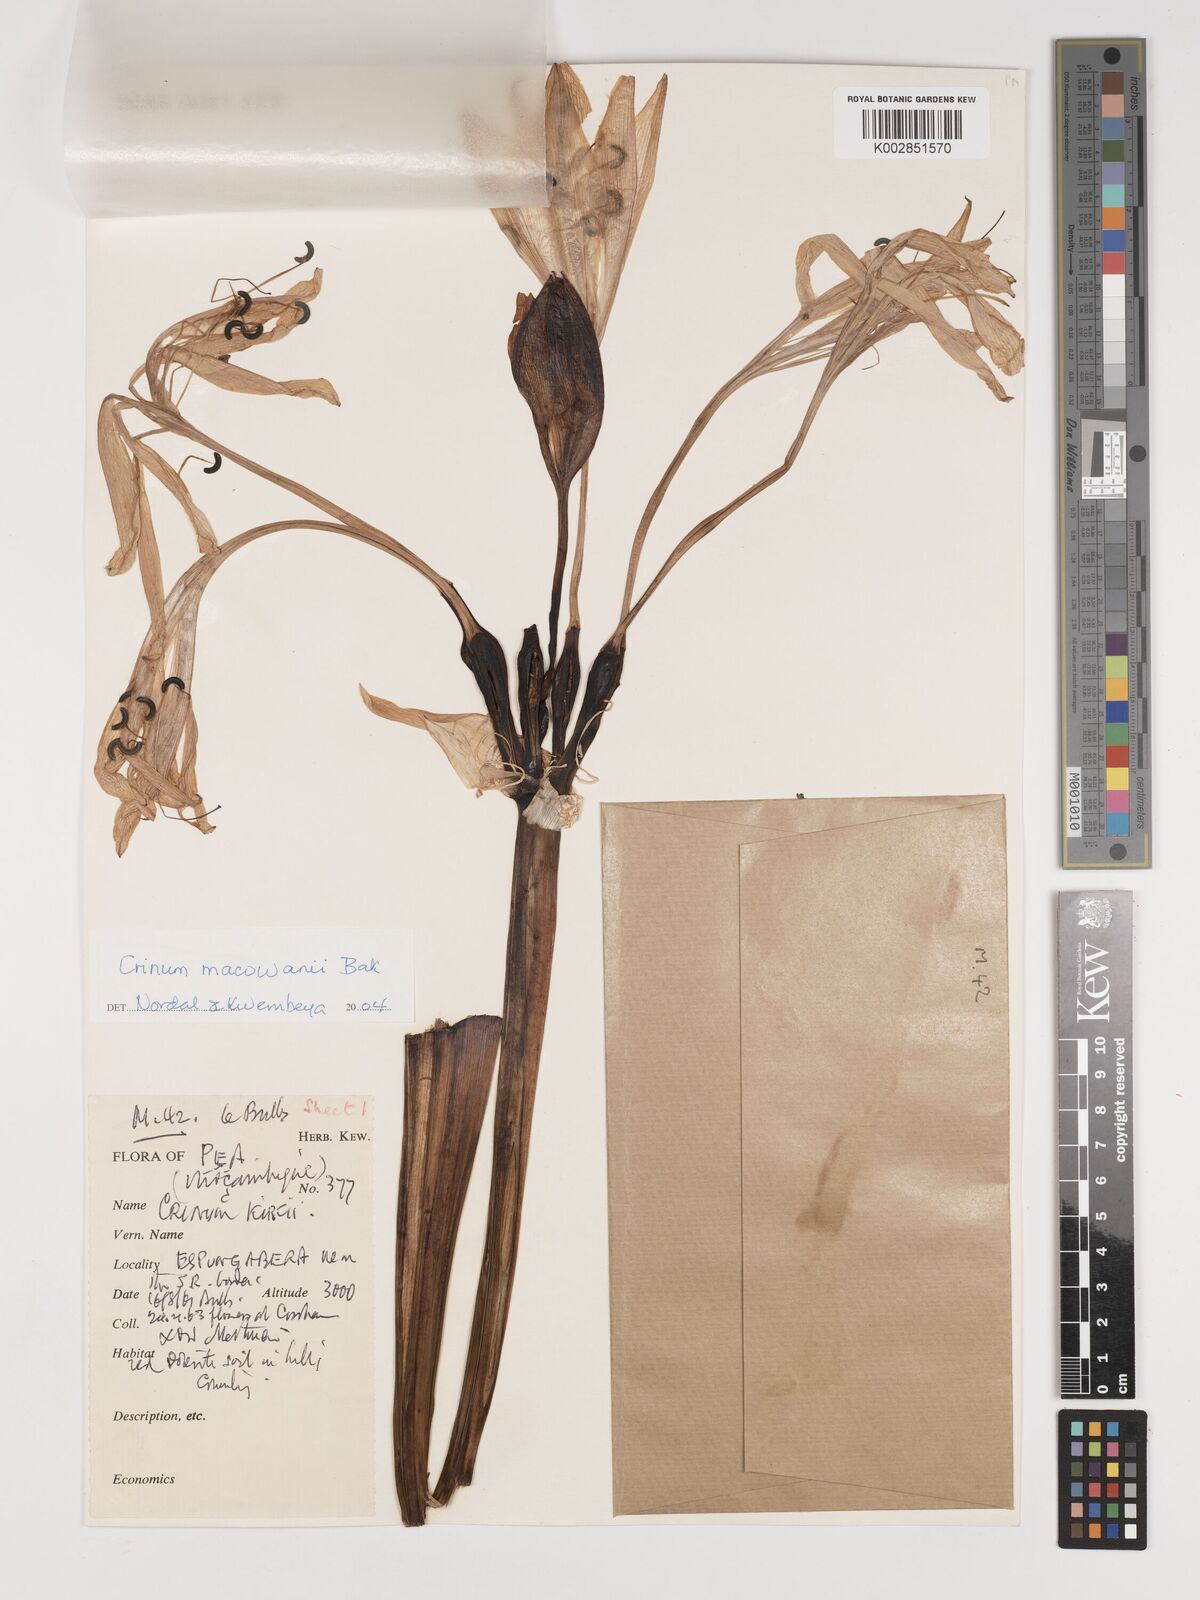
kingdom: Plantae
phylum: Tracheophyta
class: Liliopsida
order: Asparagales
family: Amaryllidaceae
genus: Crinum
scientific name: Crinum macowanii
